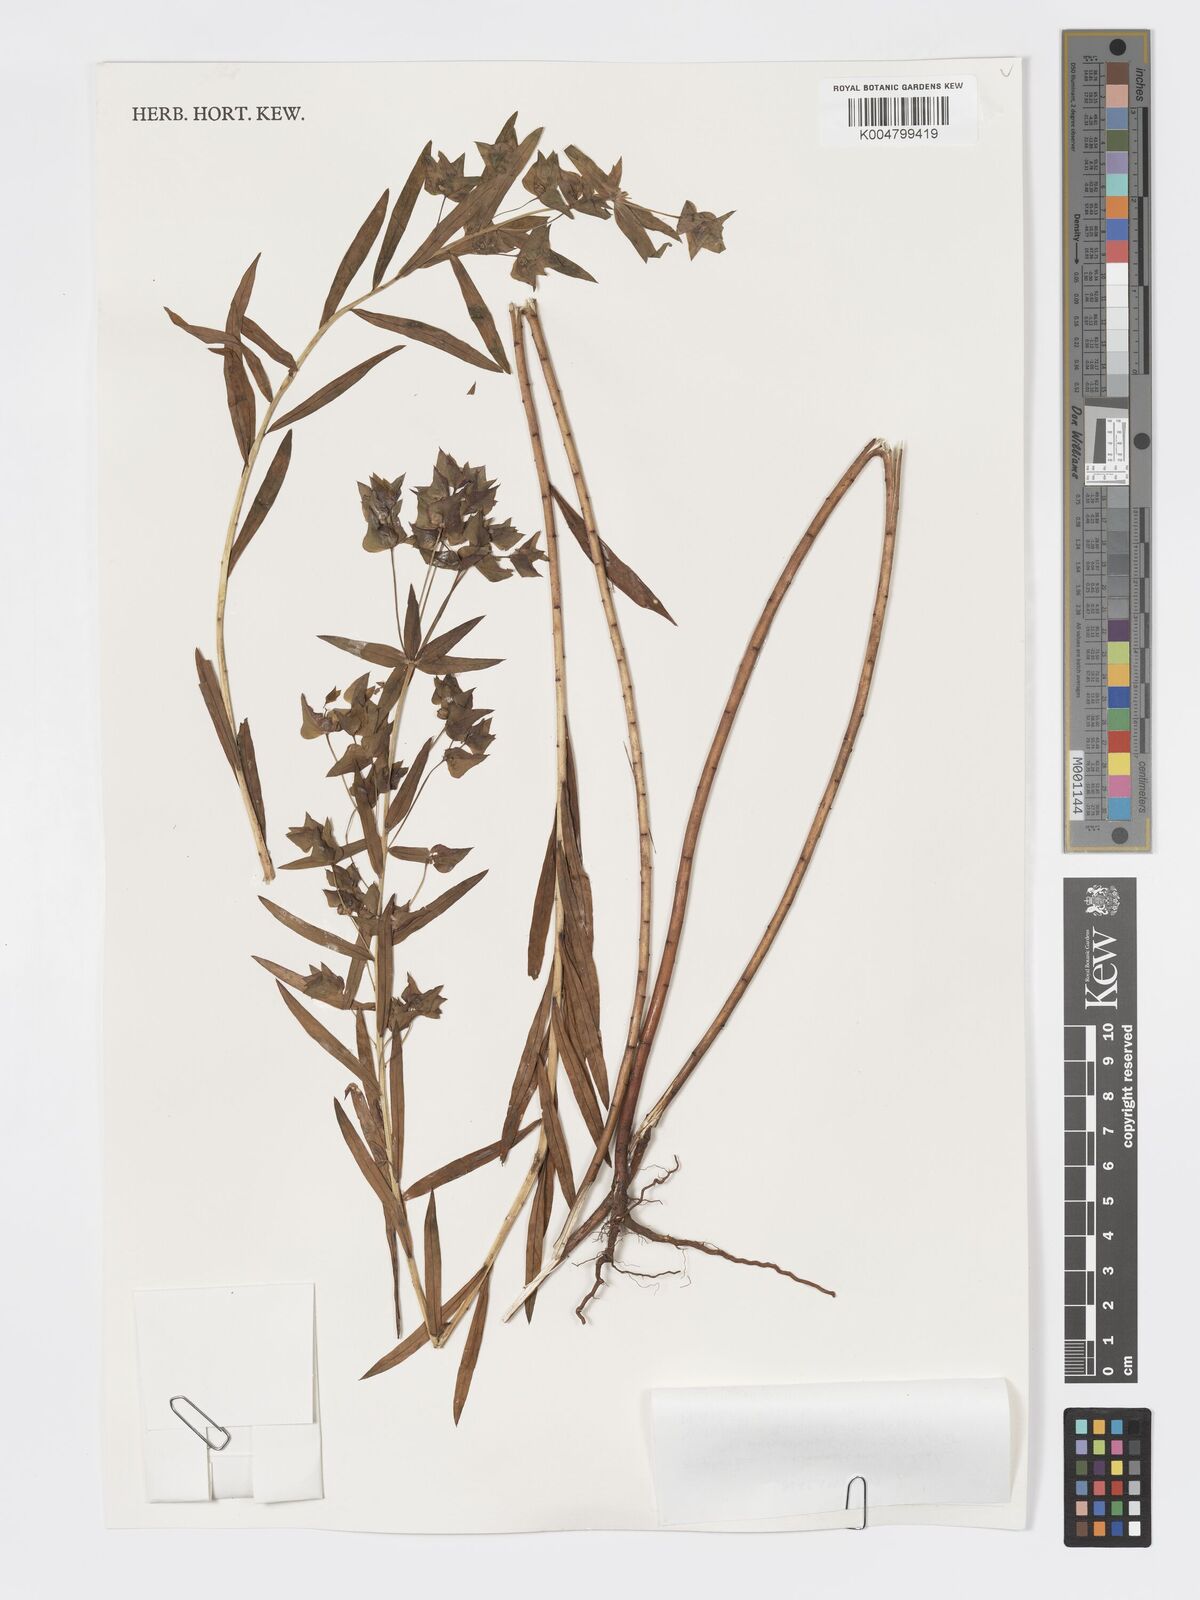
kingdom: Plantae
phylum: Tracheophyta
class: Magnoliopsida
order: Malpighiales
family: Euphorbiaceae
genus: Euphorbia
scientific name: Euphorbia schimperiana
